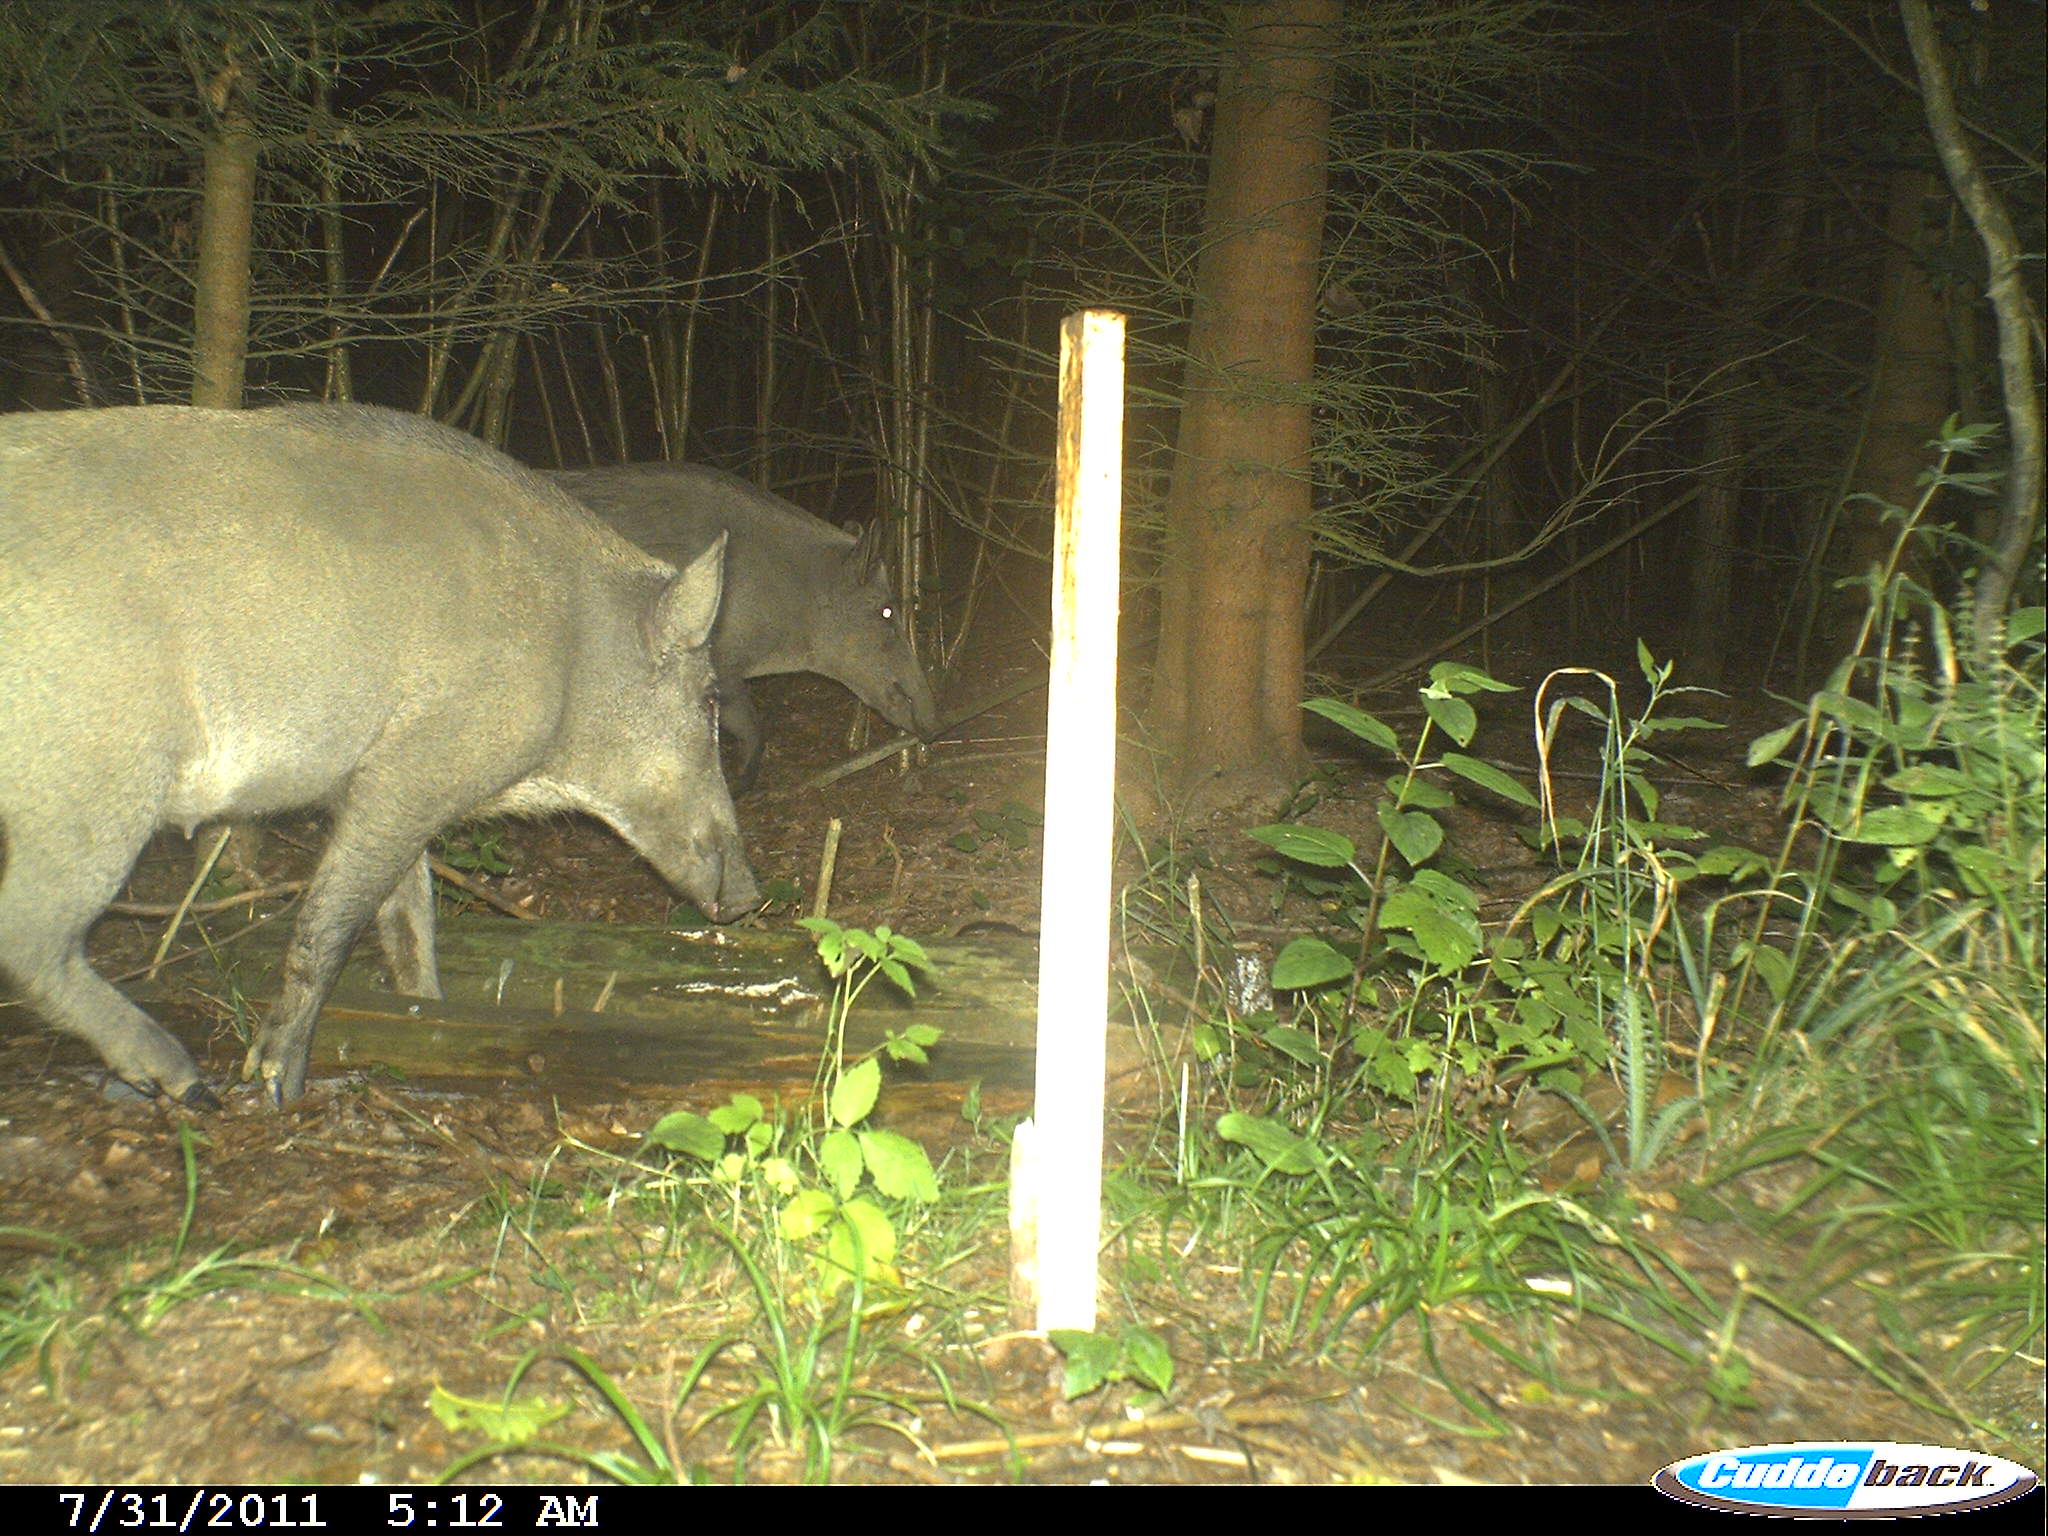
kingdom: Animalia
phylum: Chordata
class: Mammalia
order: Artiodactyla
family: Suidae
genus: Sus
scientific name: Sus scrofa
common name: Wild boar
